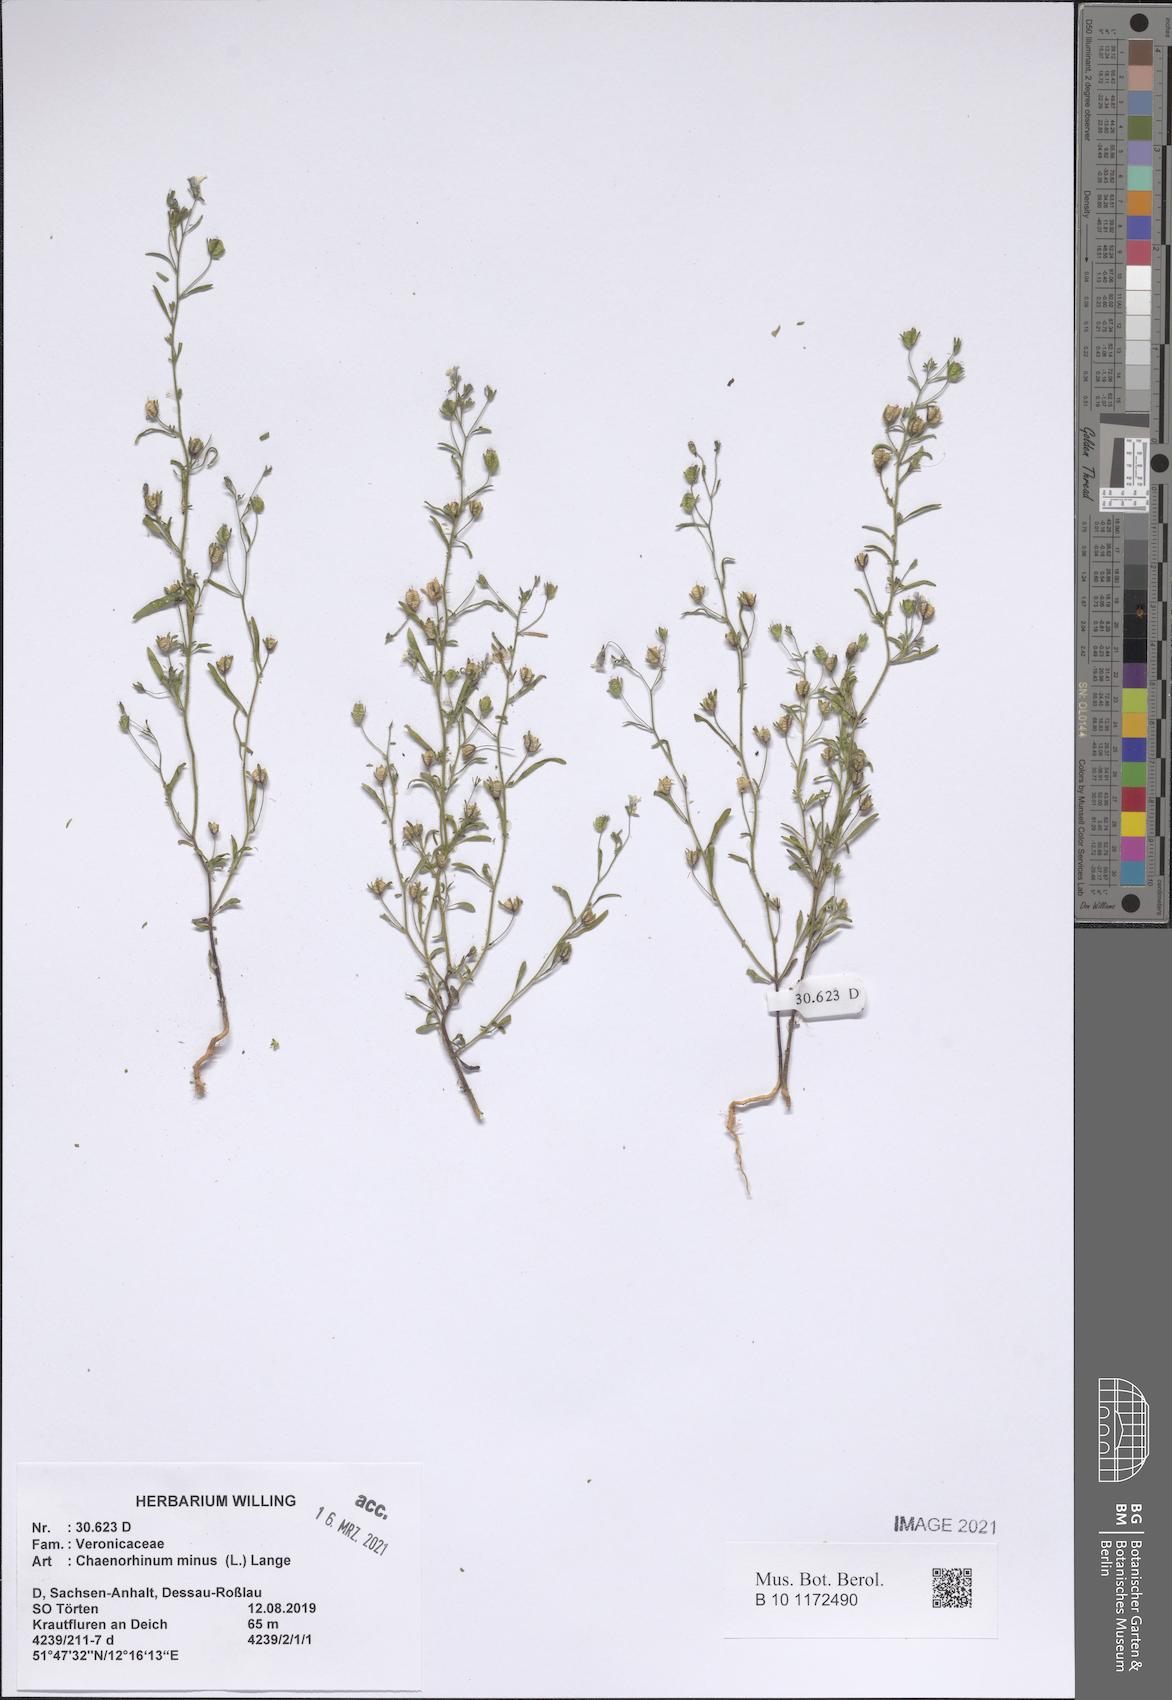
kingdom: Plantae
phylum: Tracheophyta
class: Magnoliopsida
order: Lamiales
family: Plantaginaceae
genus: Chaenorhinum
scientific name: Chaenorhinum minus
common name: Dwarf snapdragon
